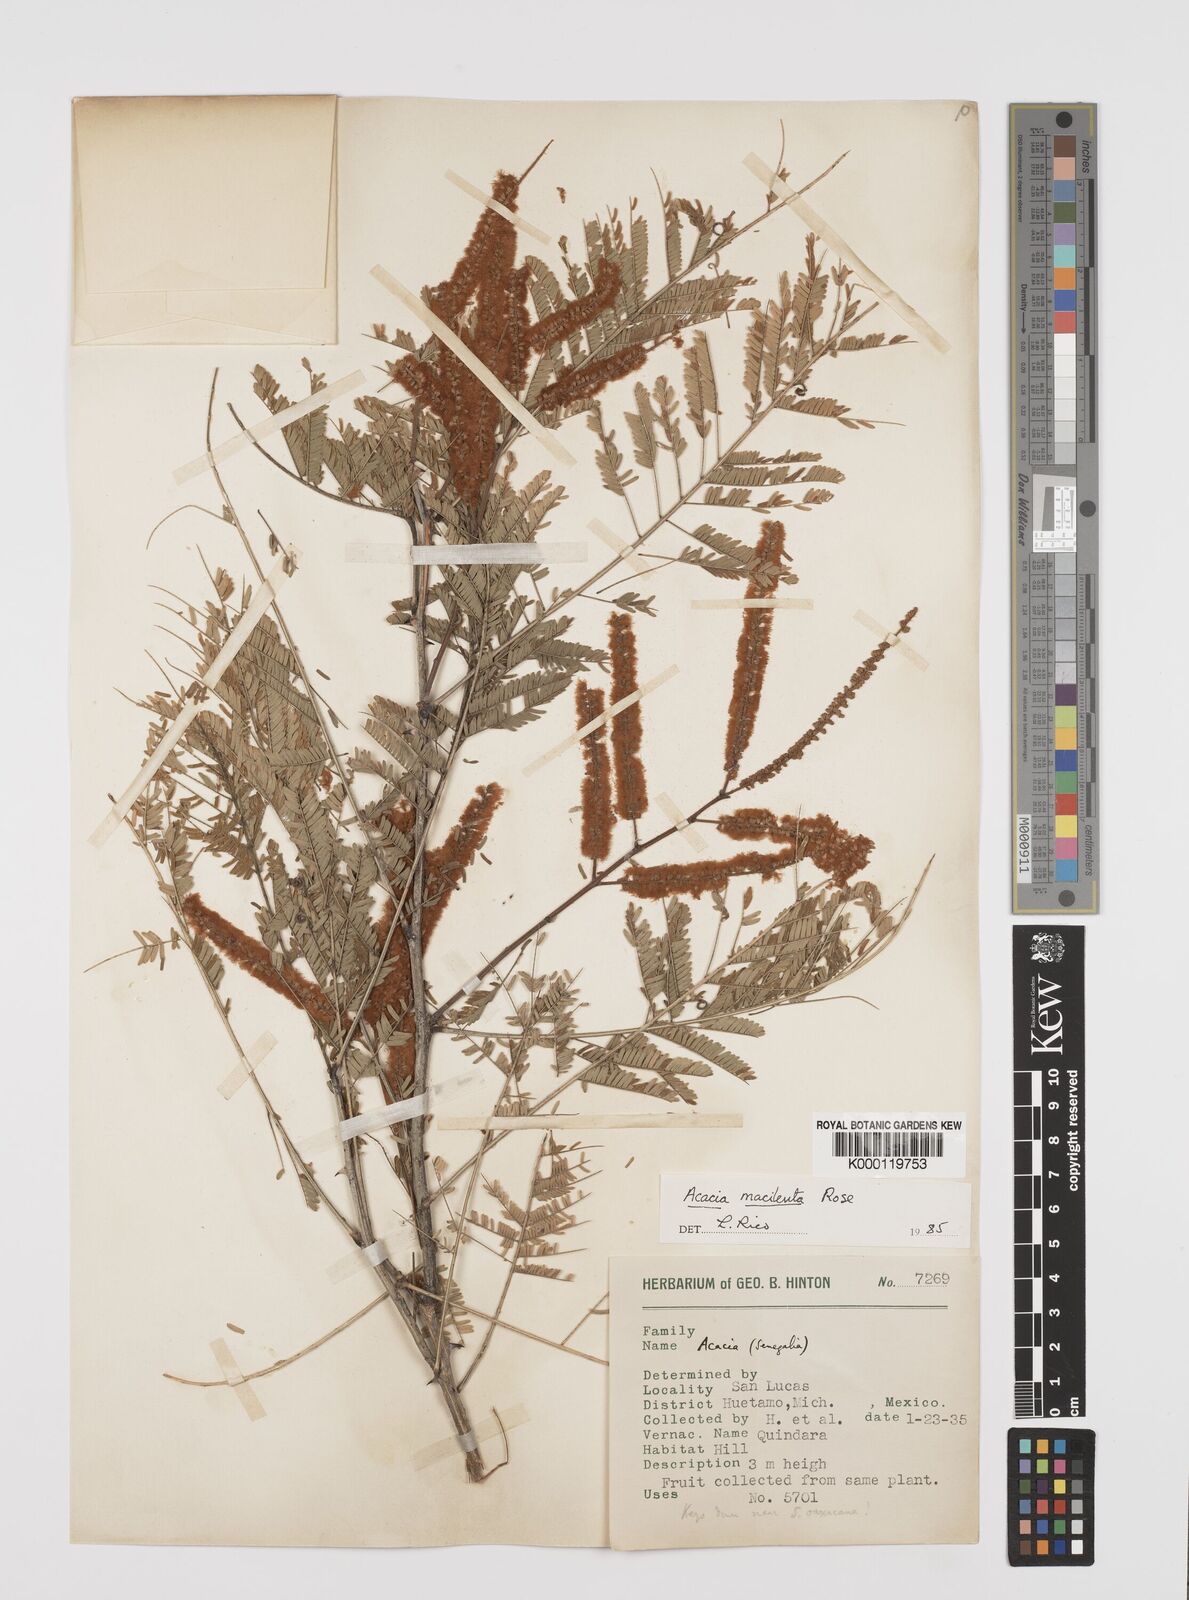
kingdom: Plantae
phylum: Tracheophyta
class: Magnoliopsida
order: Fabales
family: Fabaceae
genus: Senegalia
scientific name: Senegalia macilenta
